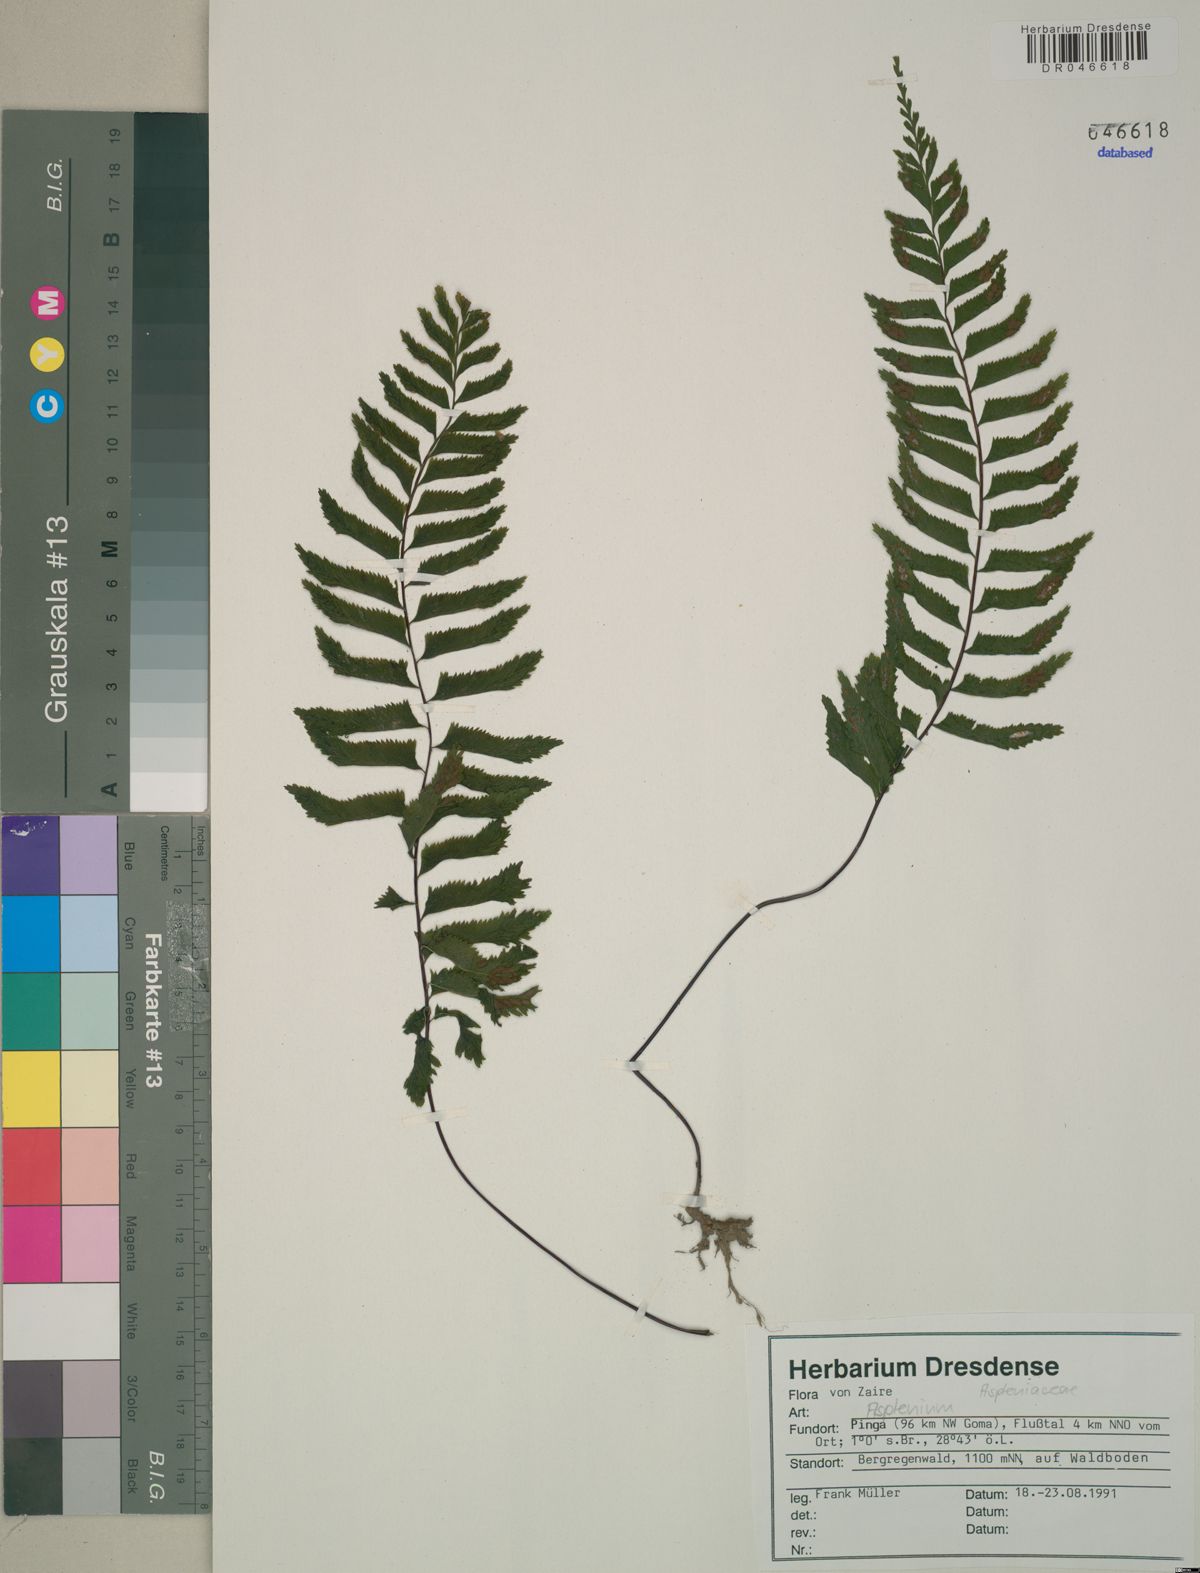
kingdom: Plantae
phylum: Tracheophyta
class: Polypodiopsida
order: Polypodiales
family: Aspleniaceae
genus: Asplenium
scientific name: Asplenium
